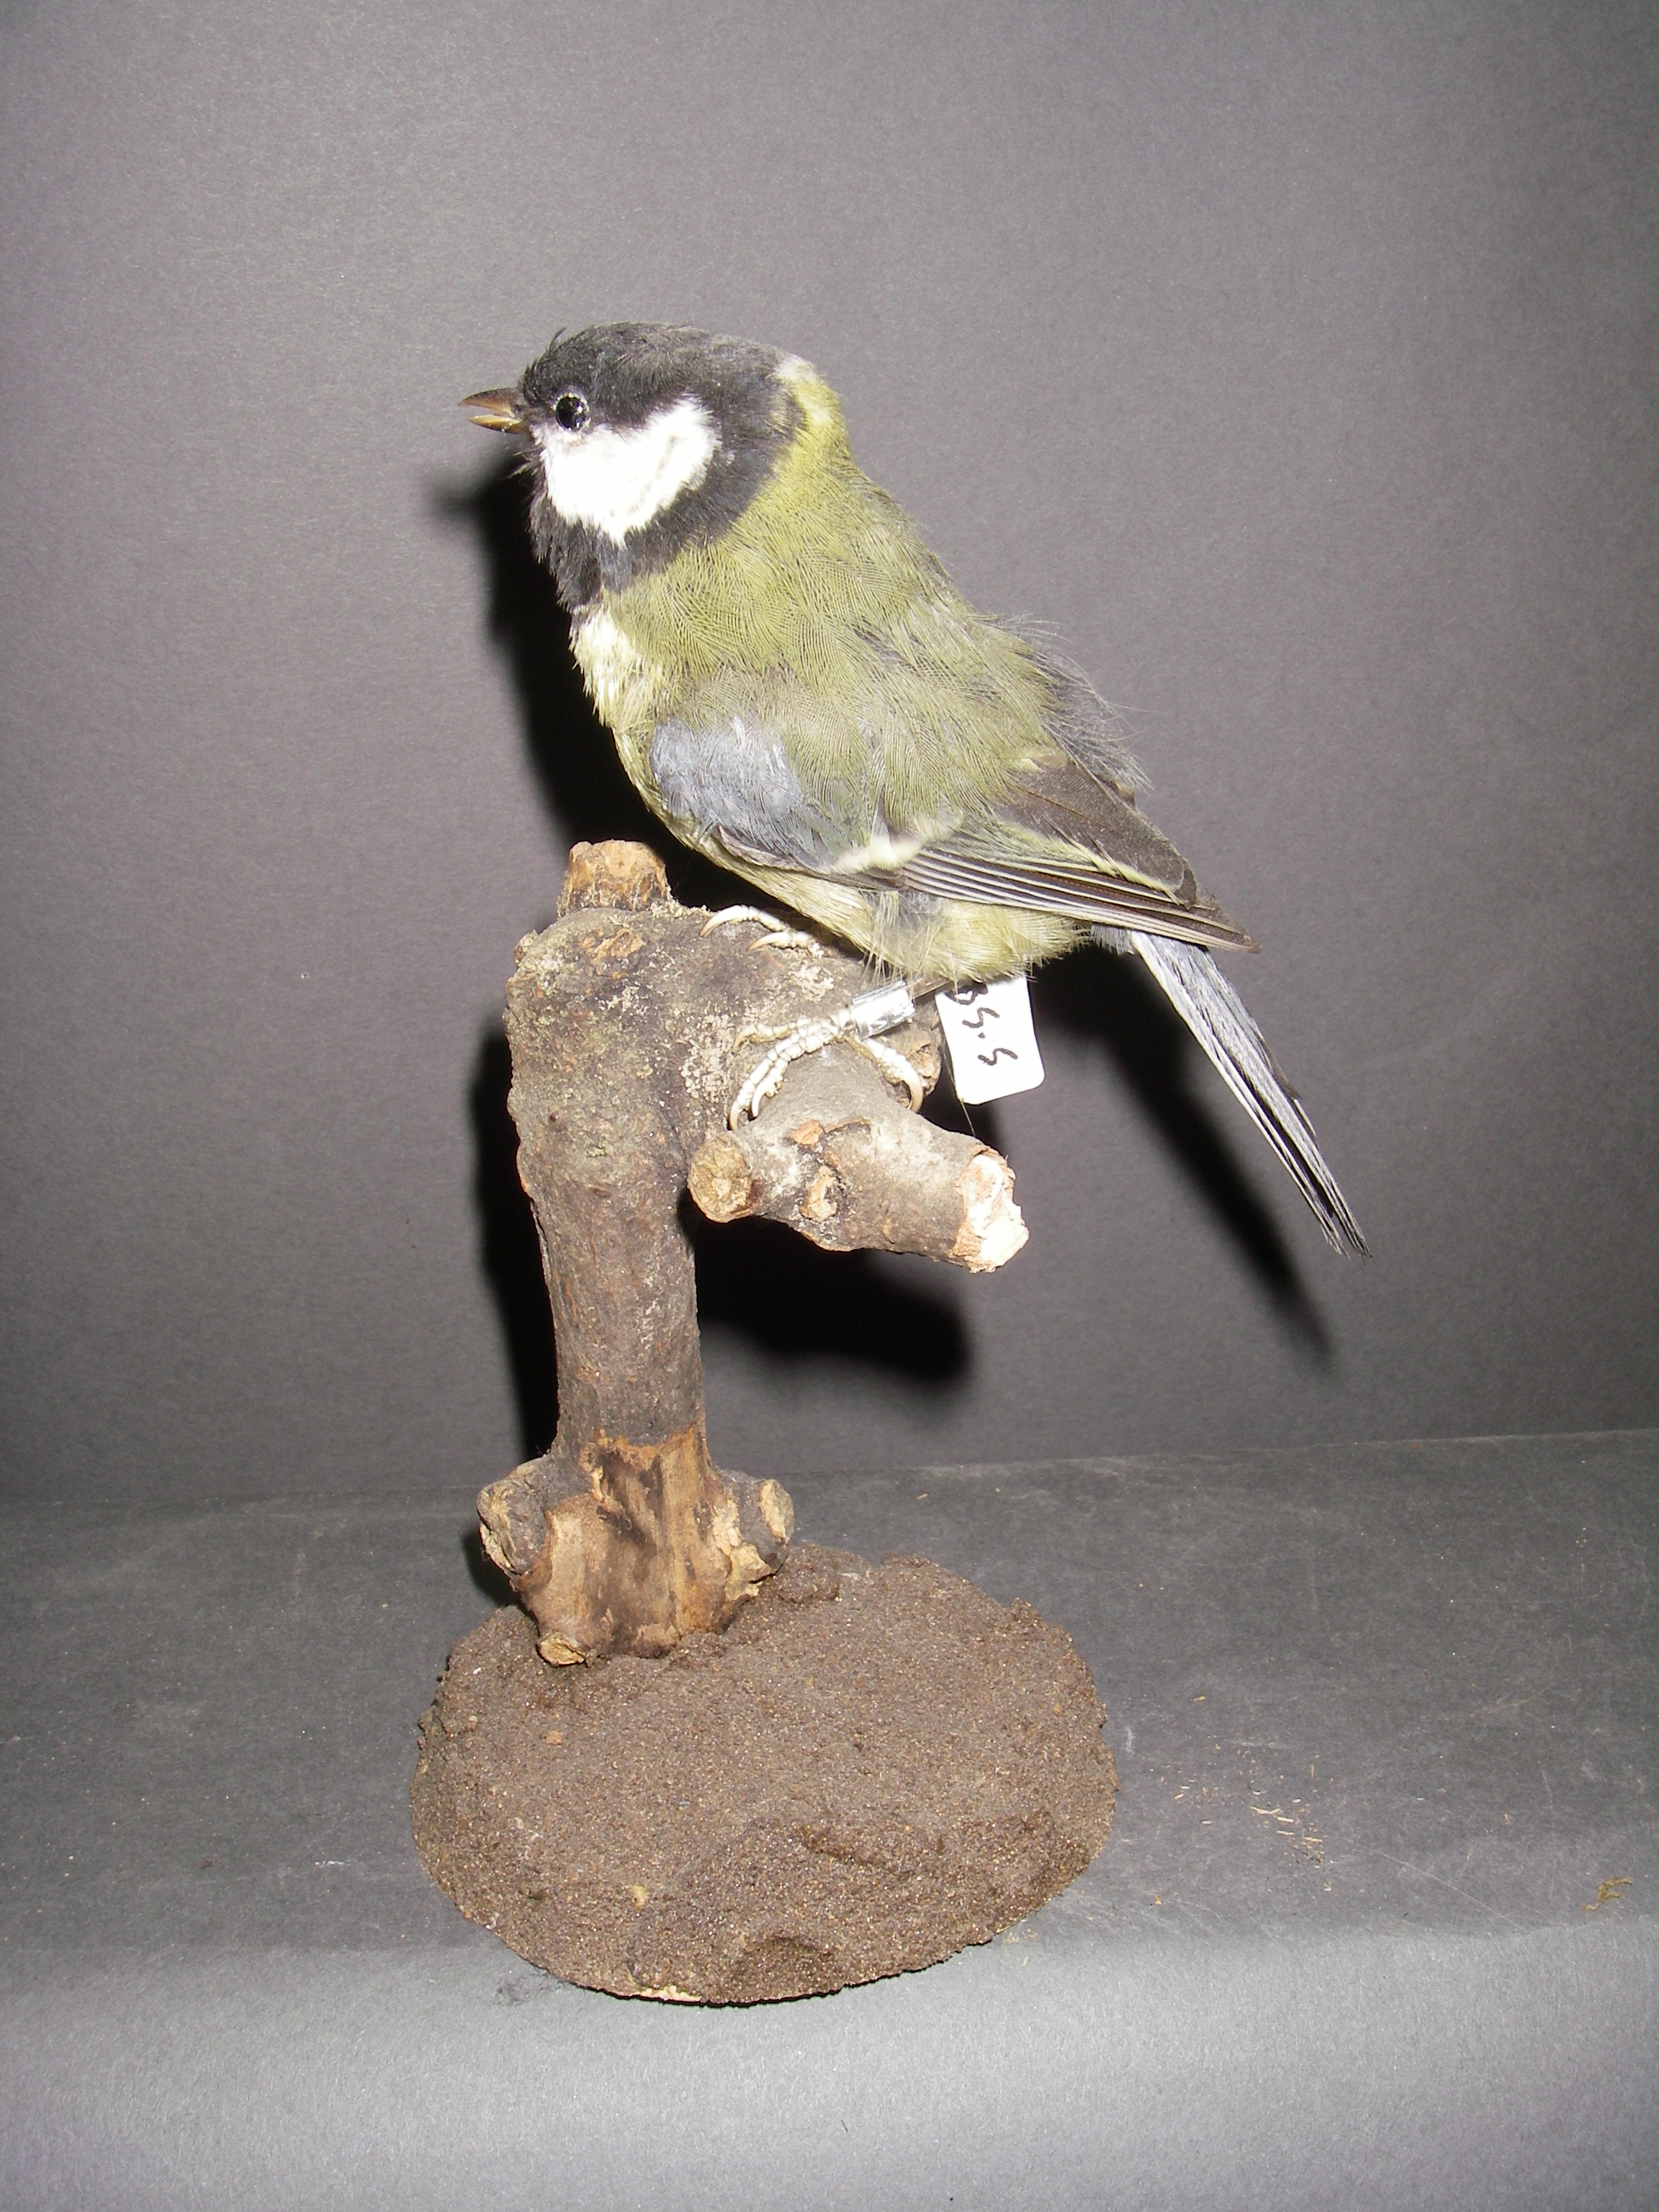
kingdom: Animalia
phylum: Chordata
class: Aves
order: Passeriformes
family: Paridae
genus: Parus
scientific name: Parus major
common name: Great tit
